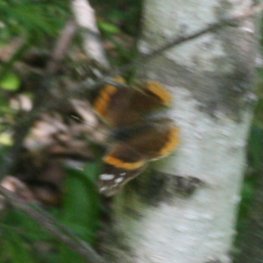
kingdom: Animalia
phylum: Arthropoda
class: Insecta
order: Lepidoptera
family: Nymphalidae
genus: Vanessa
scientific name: Vanessa atalanta
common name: Red Admiral
